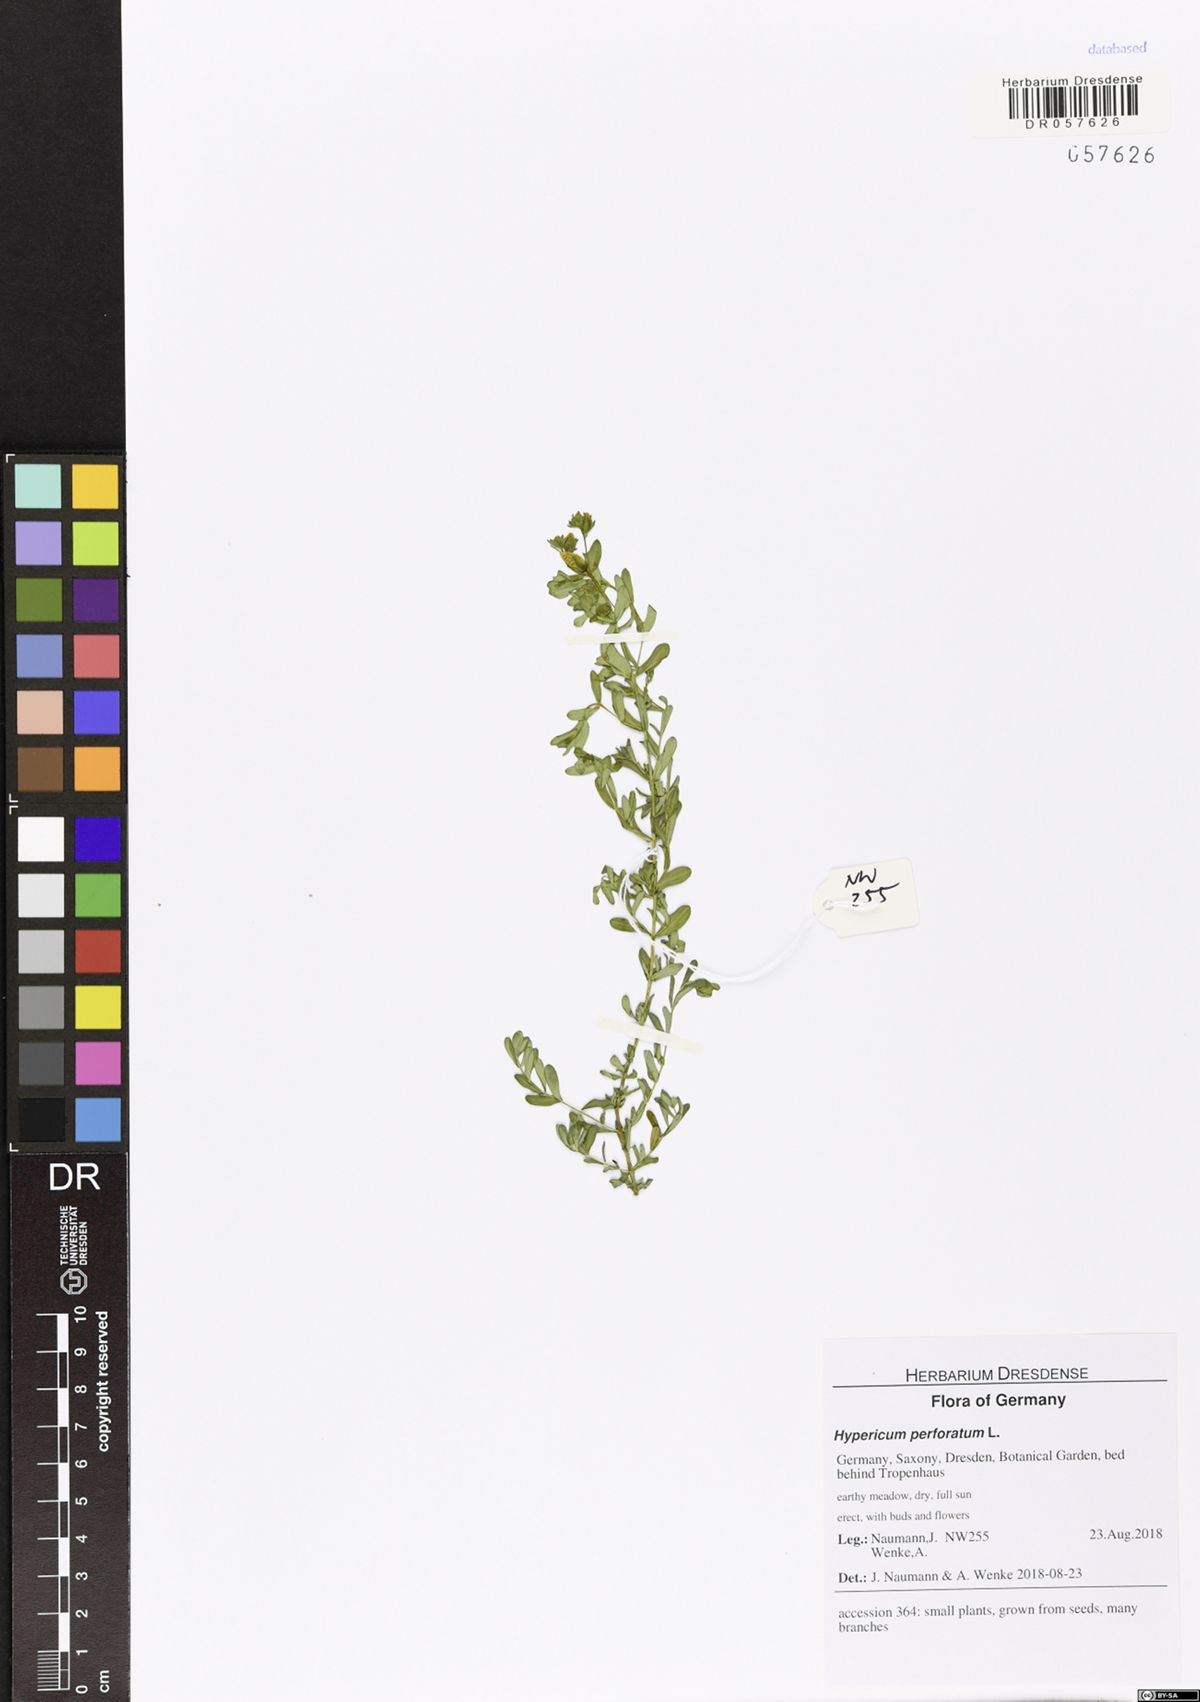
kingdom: Plantae
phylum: Tracheophyta
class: Magnoliopsida
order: Malpighiales
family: Hypericaceae
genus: Hypericum
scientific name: Hypericum perforatum
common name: Common st. johnswort
